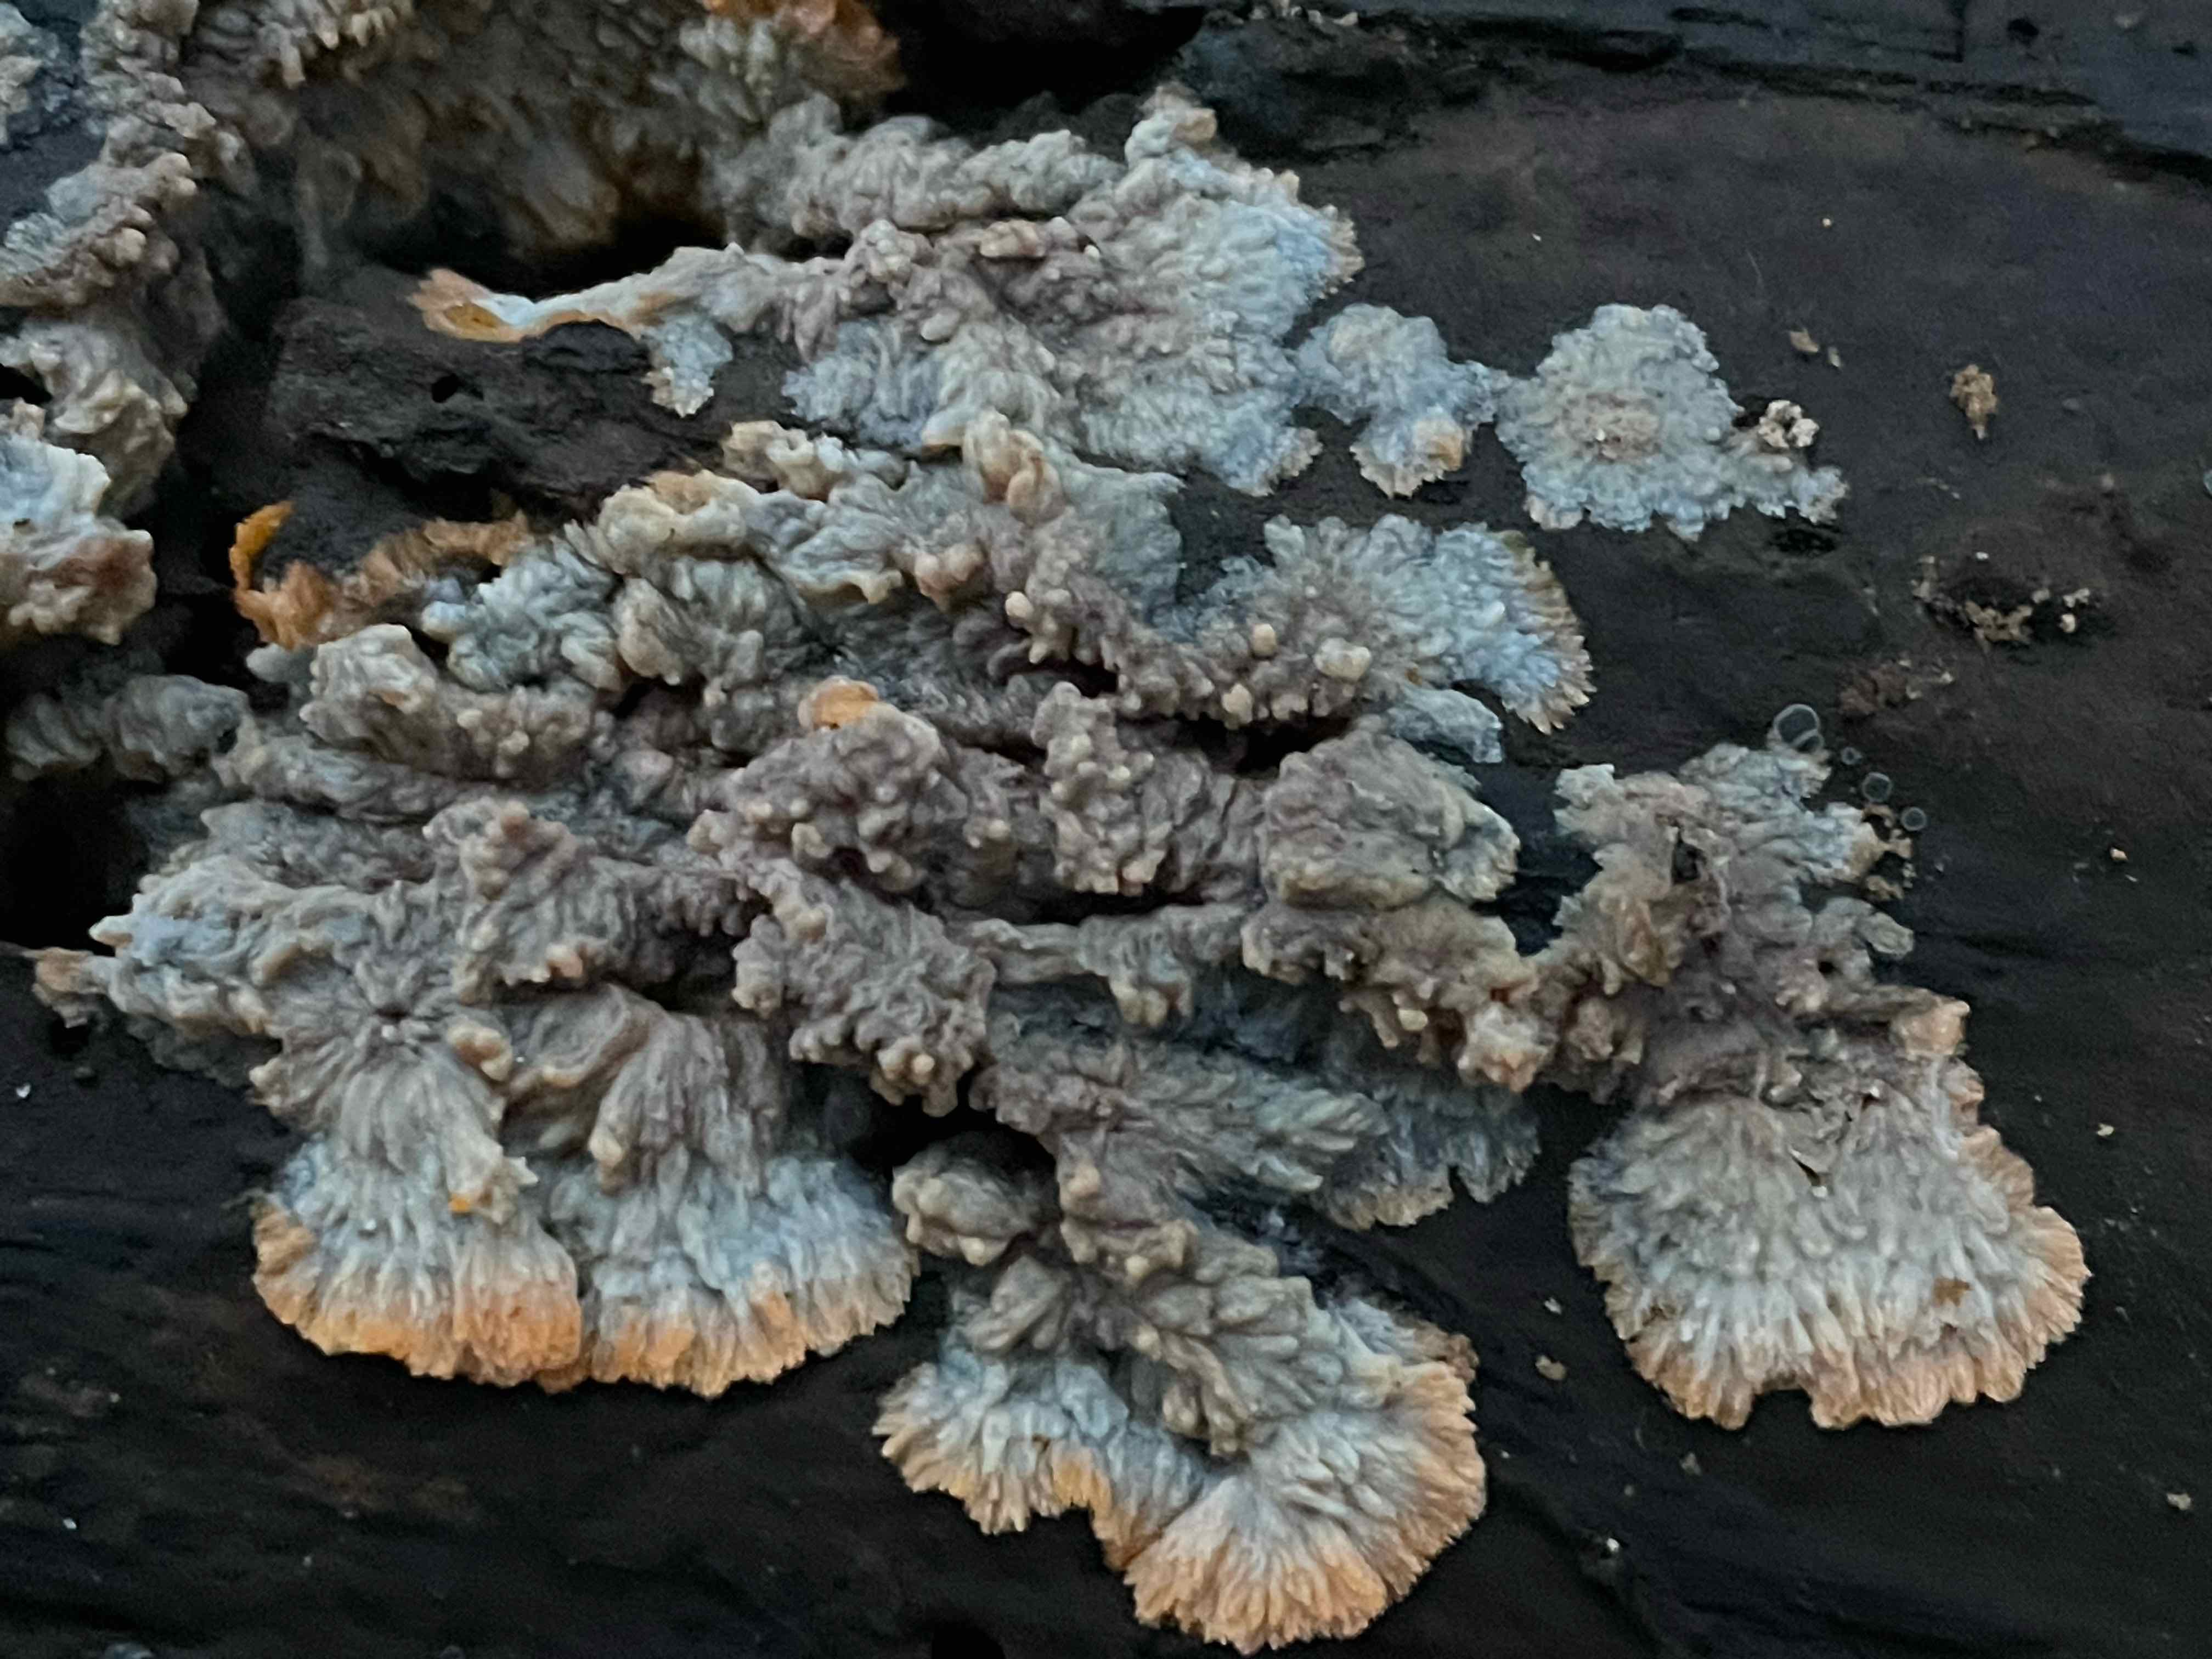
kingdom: Fungi
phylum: Basidiomycota
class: Agaricomycetes
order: Polyporales
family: Meruliaceae
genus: Phlebia
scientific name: Phlebia radiata
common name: stråle-åresvamp
